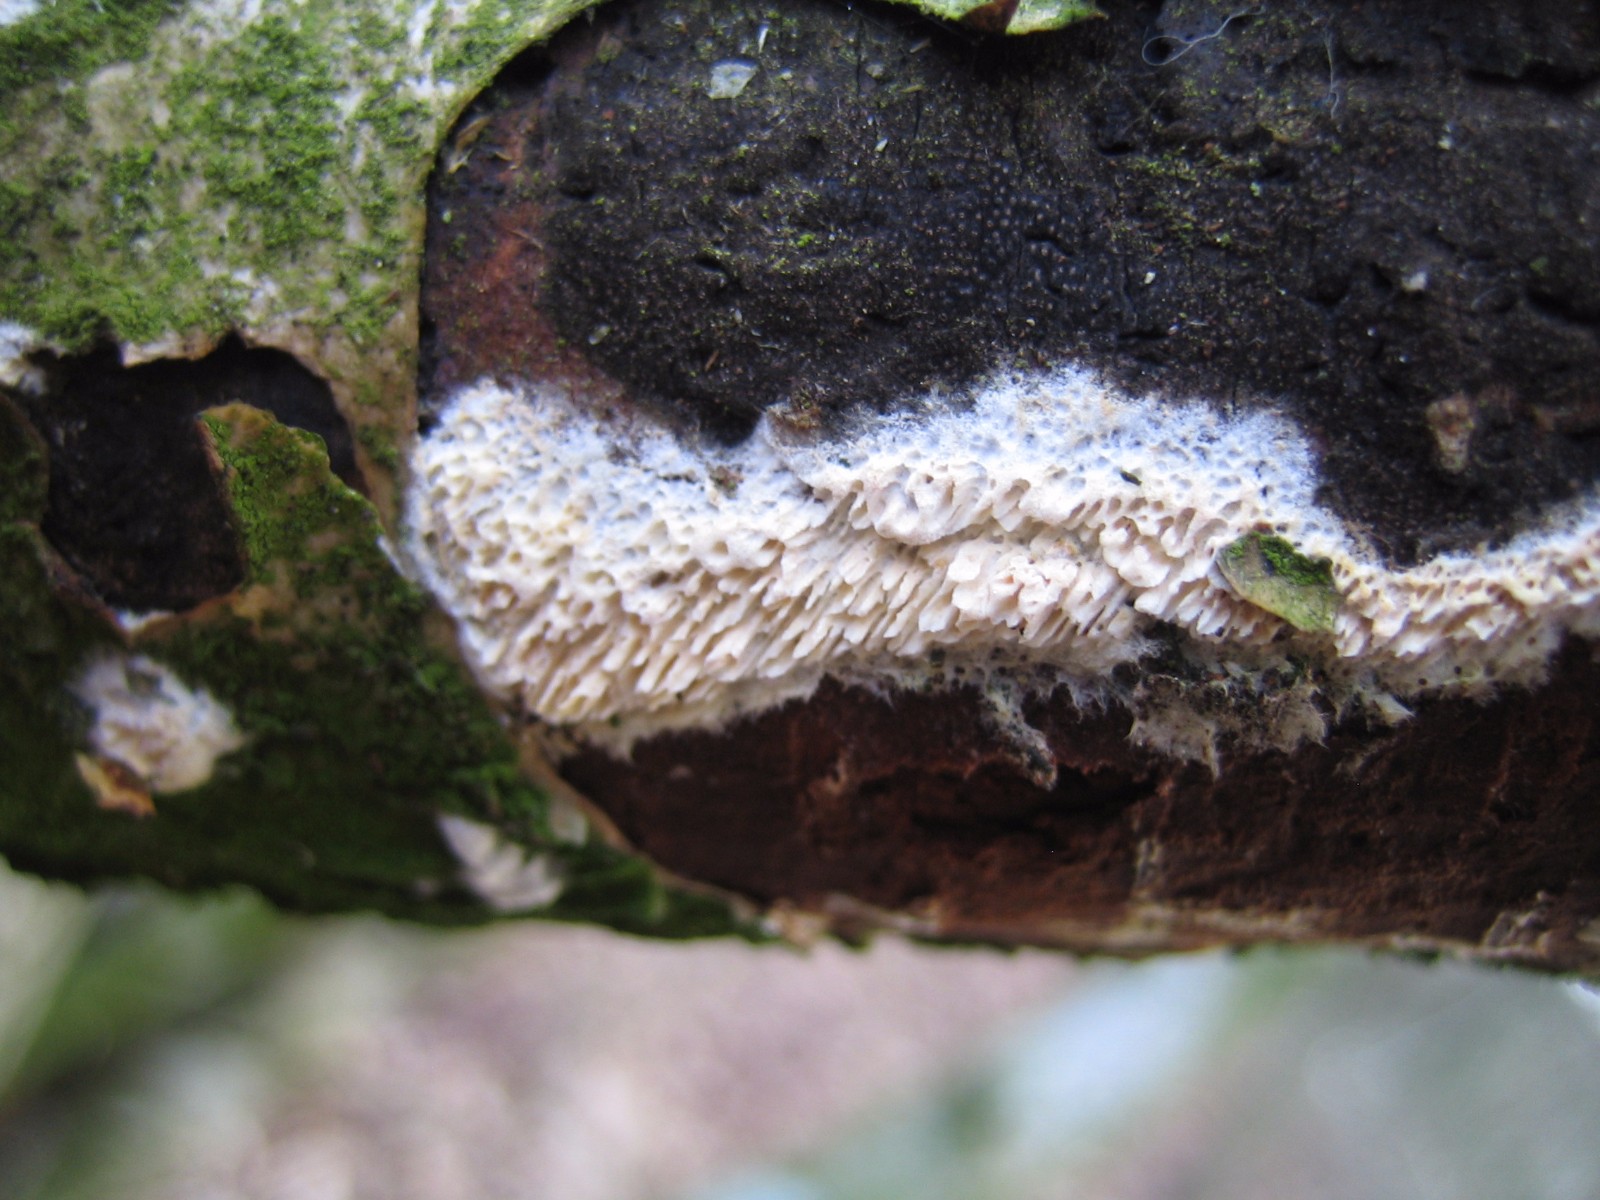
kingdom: Fungi
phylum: Basidiomycota
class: Agaricomycetes
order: Hymenochaetales
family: Schizoporaceae
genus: Xylodon
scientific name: Xylodon radula
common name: grovtandet kalkskind
